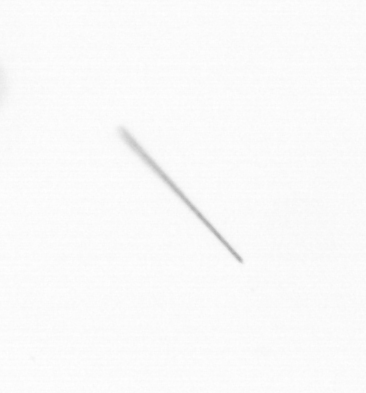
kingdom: Chromista
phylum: Ochrophyta
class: Bacillariophyceae
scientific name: Bacillariophyceae
